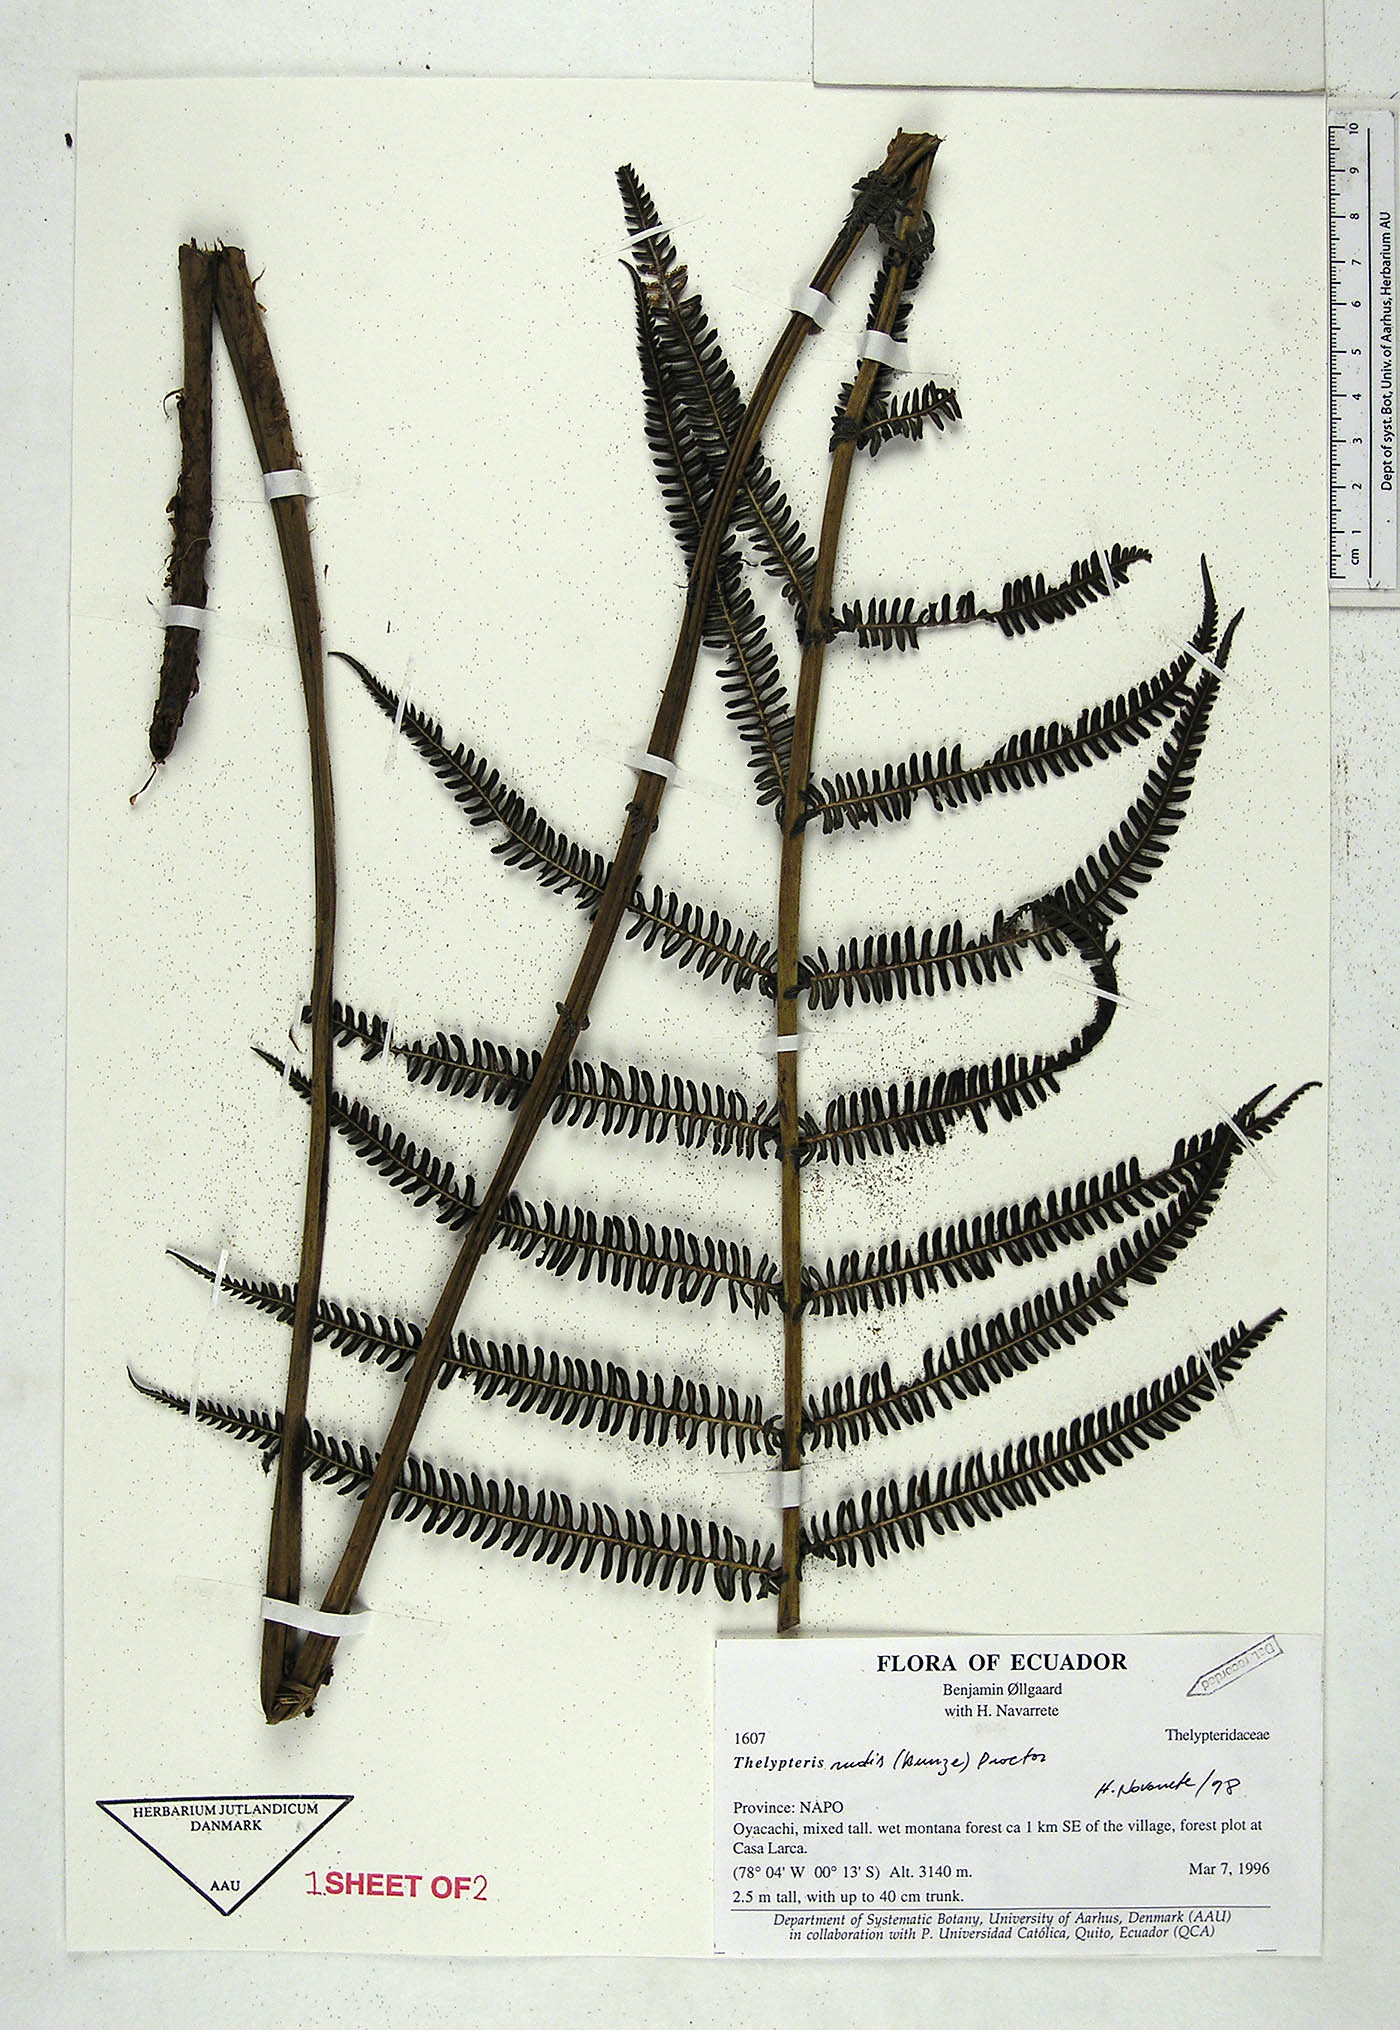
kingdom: Plantae
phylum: Tracheophyta
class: Polypodiopsida
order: Polypodiales
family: Thelypteridaceae
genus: Amauropelta
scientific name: Amauropelta rudis
